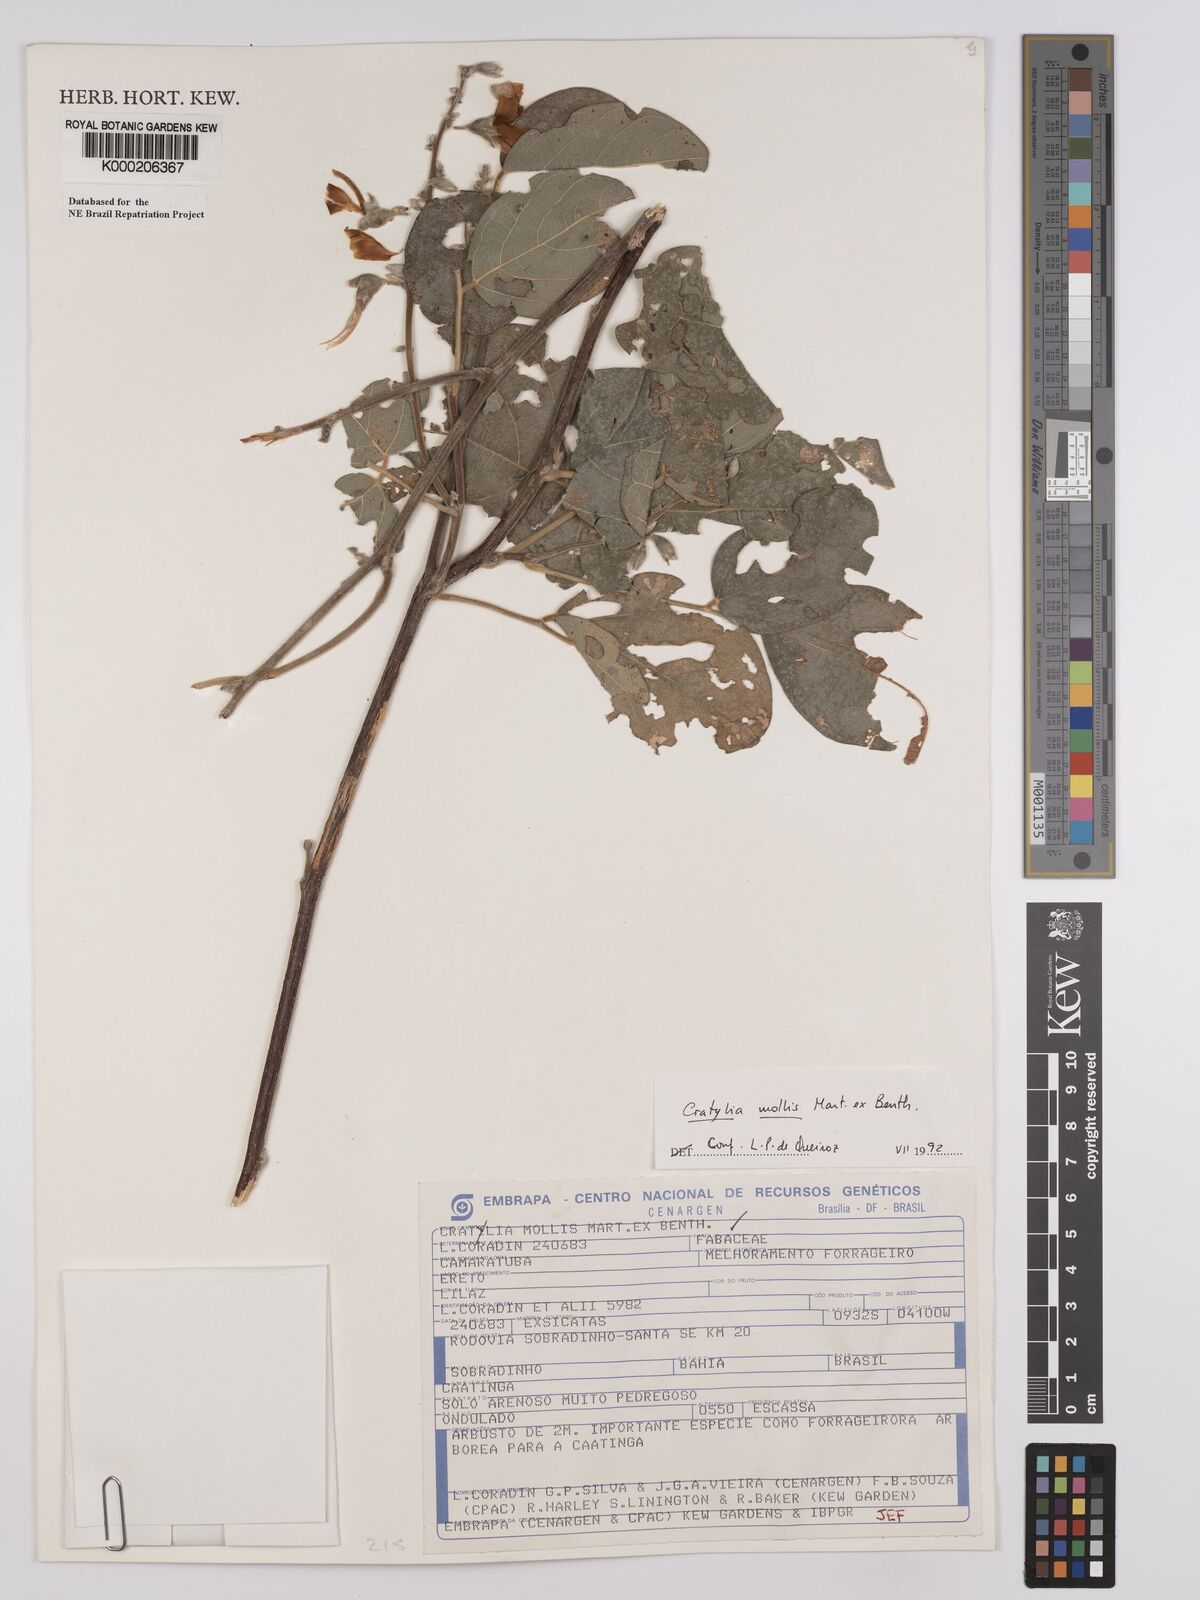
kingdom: Plantae
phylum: Tracheophyta
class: Magnoliopsida
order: Fabales
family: Fabaceae
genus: Cratylia
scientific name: Cratylia mollis
